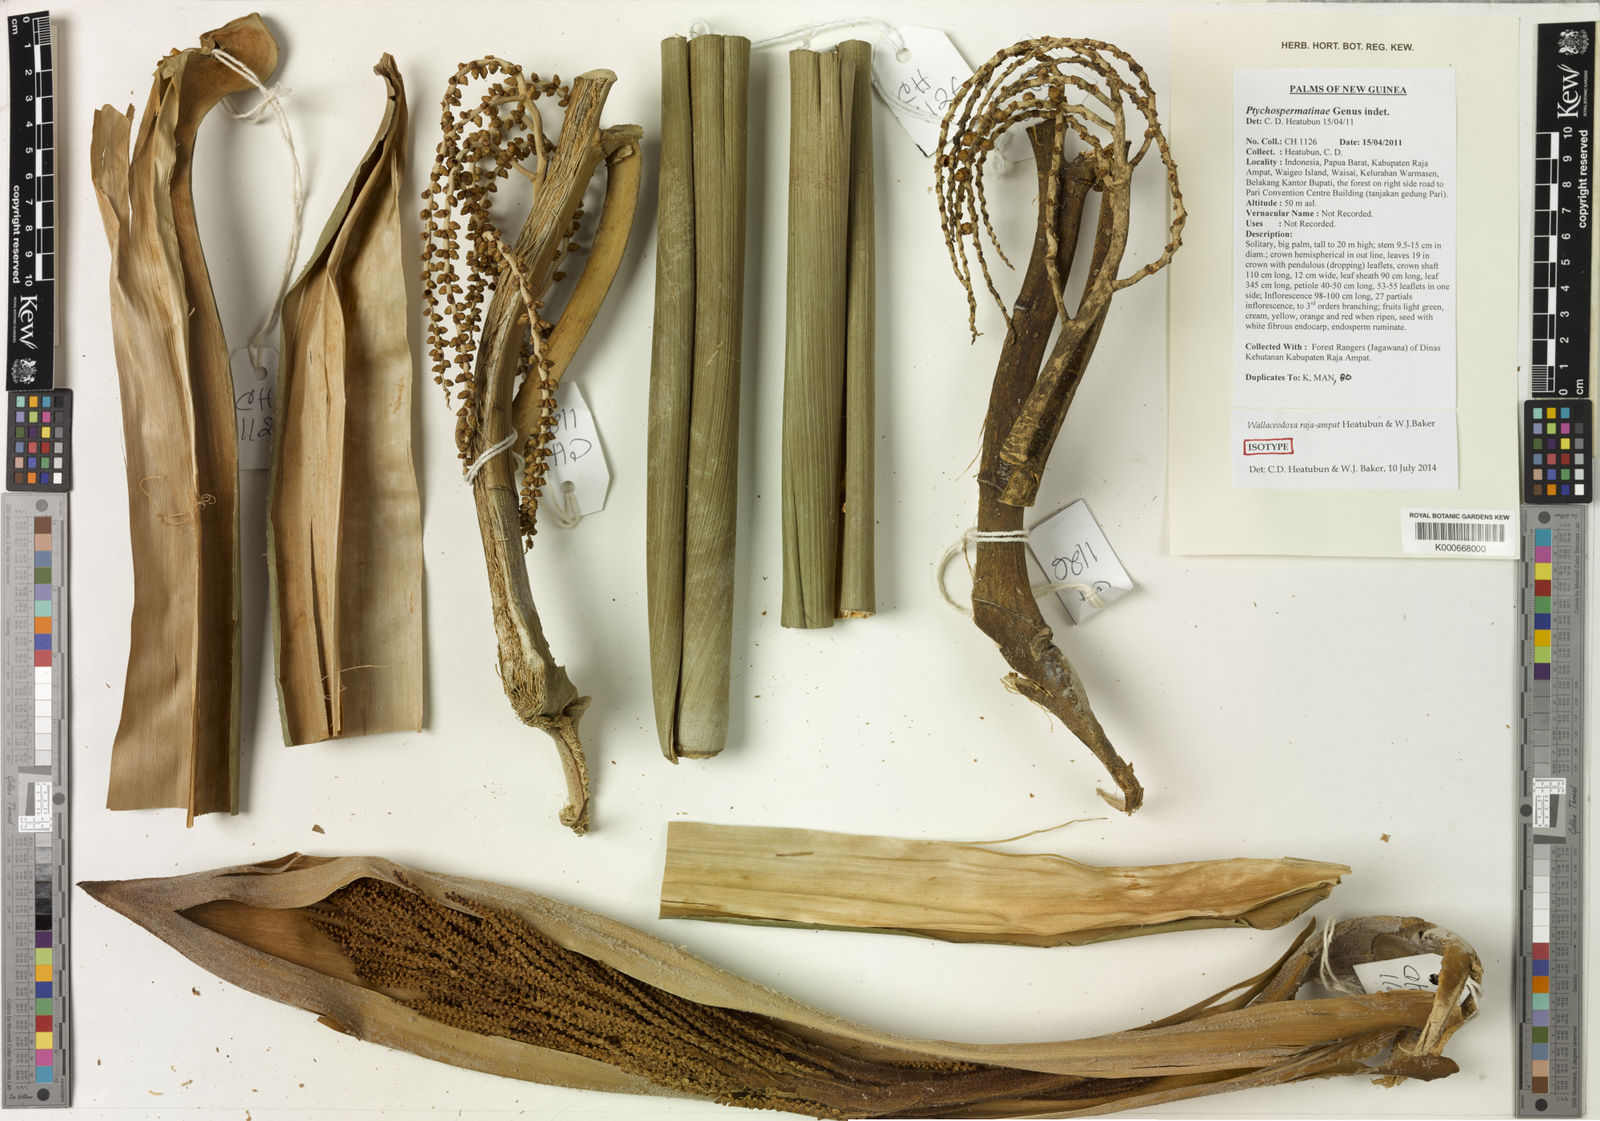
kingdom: Plantae
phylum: Tracheophyta
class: Liliopsida
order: Arecales
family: Arecaceae
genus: Wallaceodoxa
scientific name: Wallaceodoxa raja-ampat
